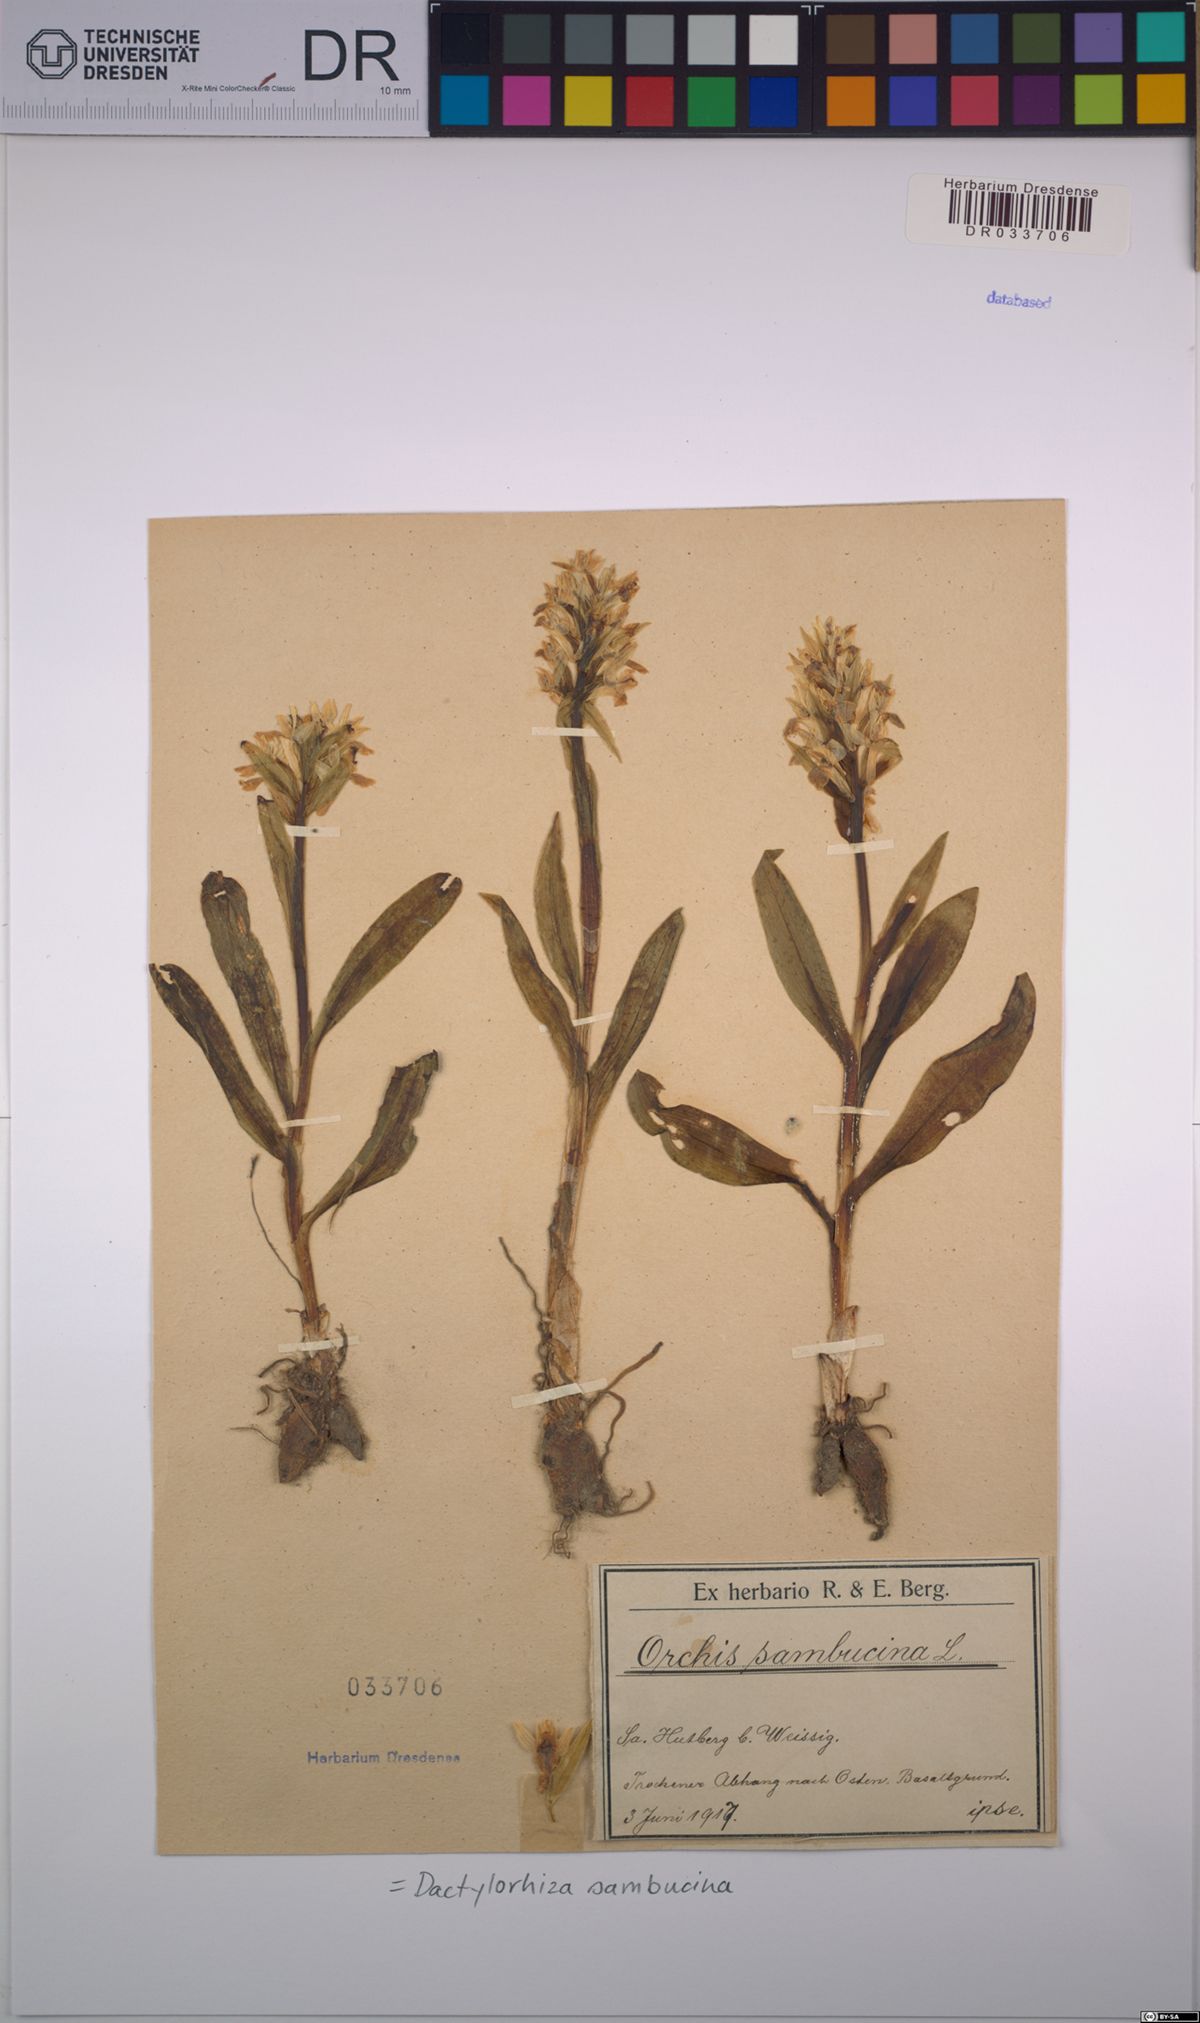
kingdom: Plantae
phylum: Tracheophyta
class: Liliopsida
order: Asparagales
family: Orchidaceae
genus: Dactylorhiza
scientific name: Dactylorhiza sambucina
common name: Elder-flowered orchid
